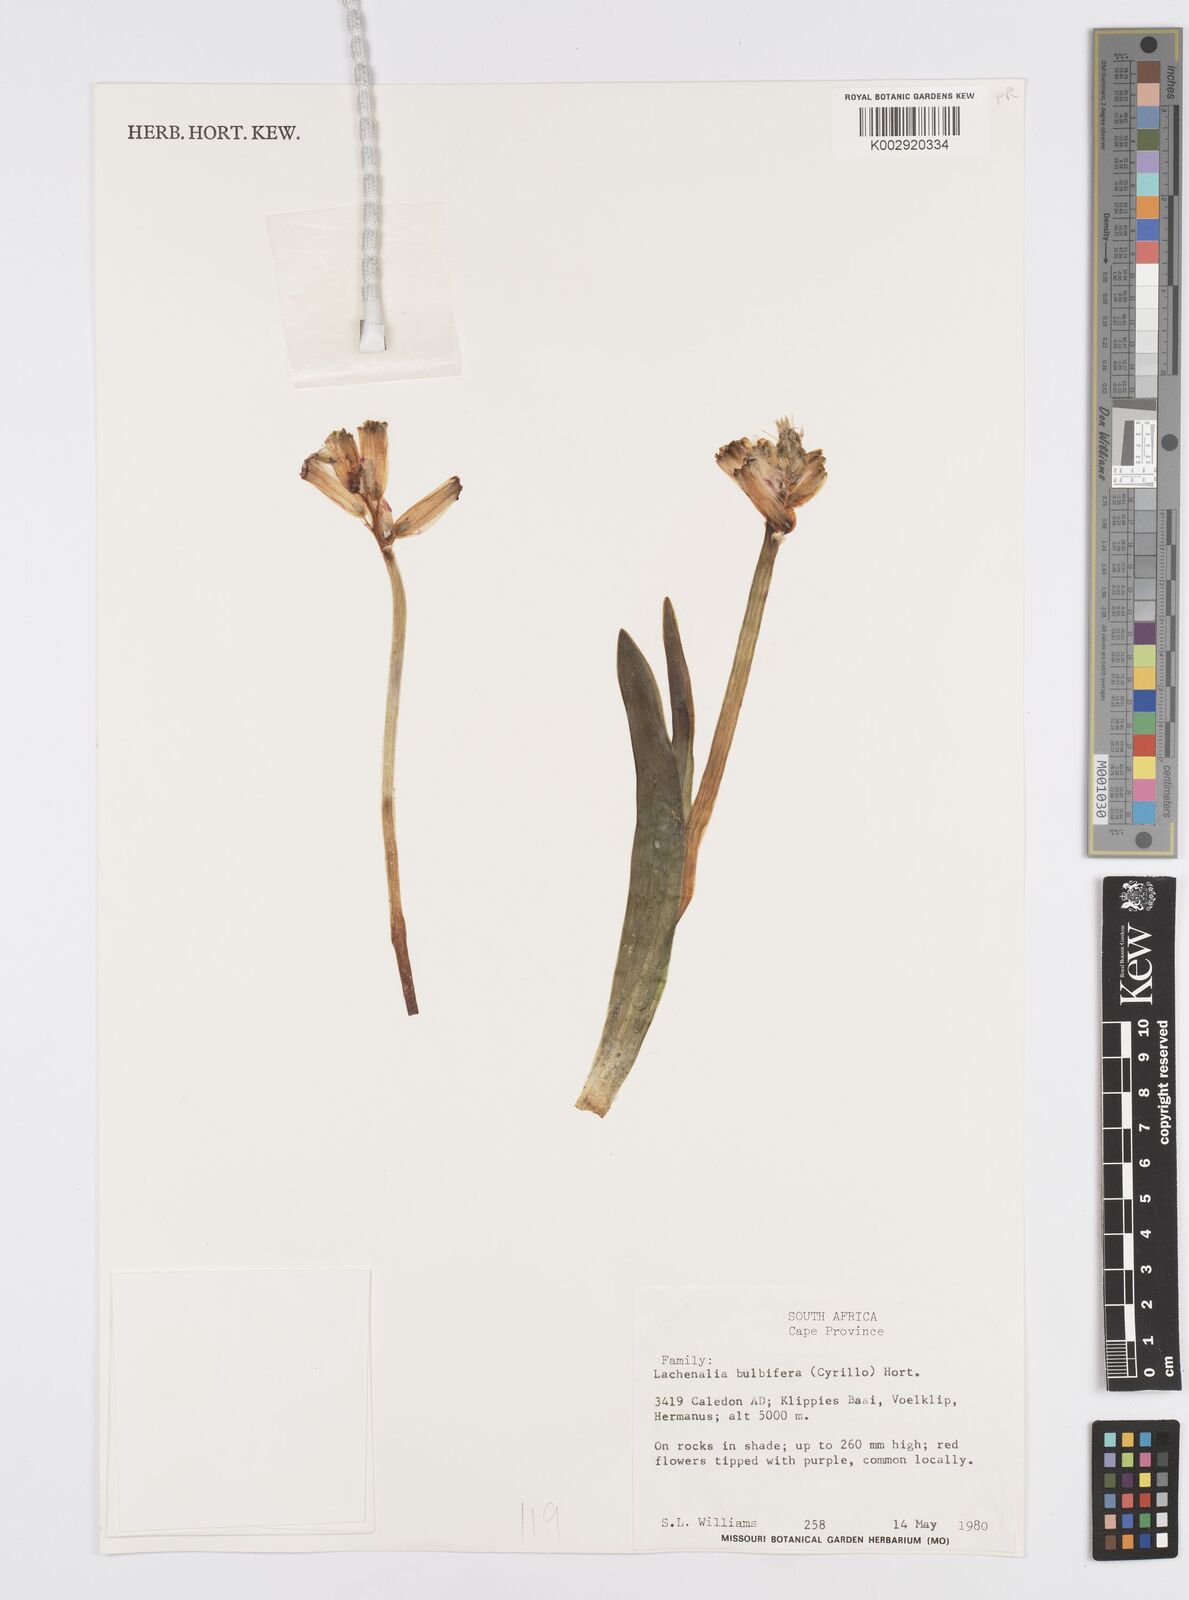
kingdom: Plantae
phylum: Tracheophyta
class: Liliopsida
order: Asparagales
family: Asparagaceae
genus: Lachenalia
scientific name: Lachenalia bulbifera
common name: Red lachenalia
